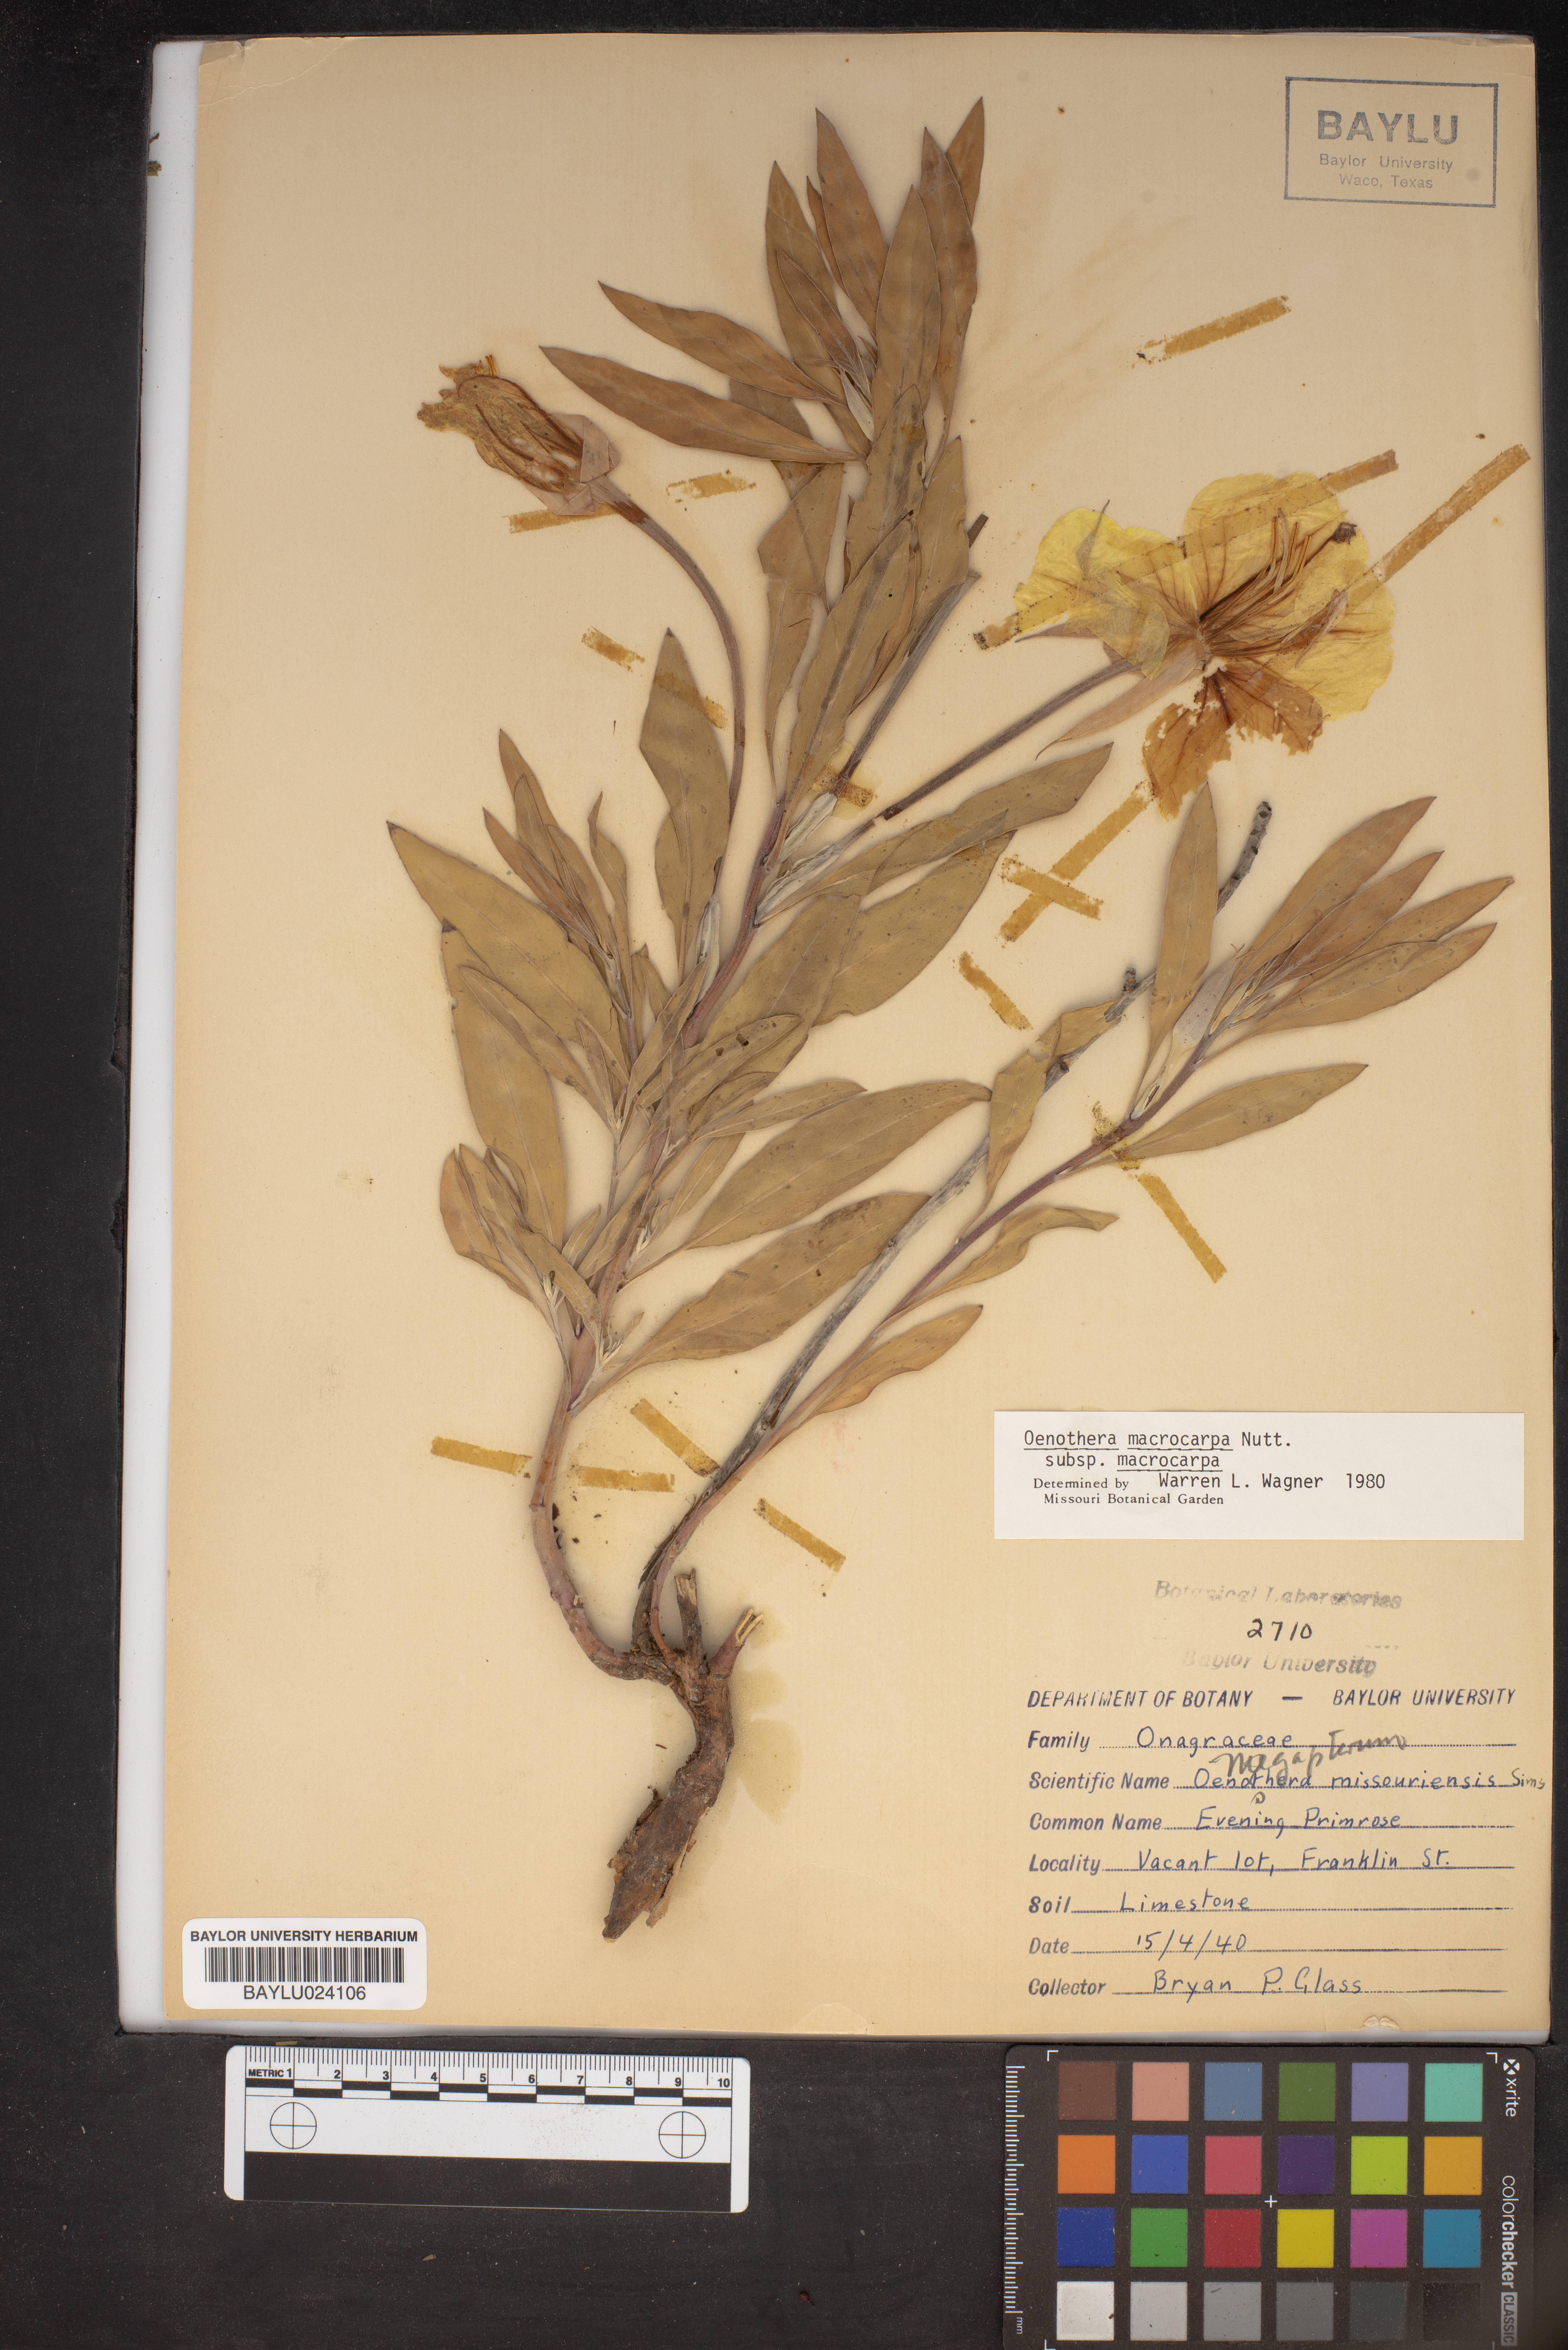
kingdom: Plantae
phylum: Tracheophyta
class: Magnoliopsida
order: Myrtales
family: Onagraceae
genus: Oenothera
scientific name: Oenothera macrocarpa
